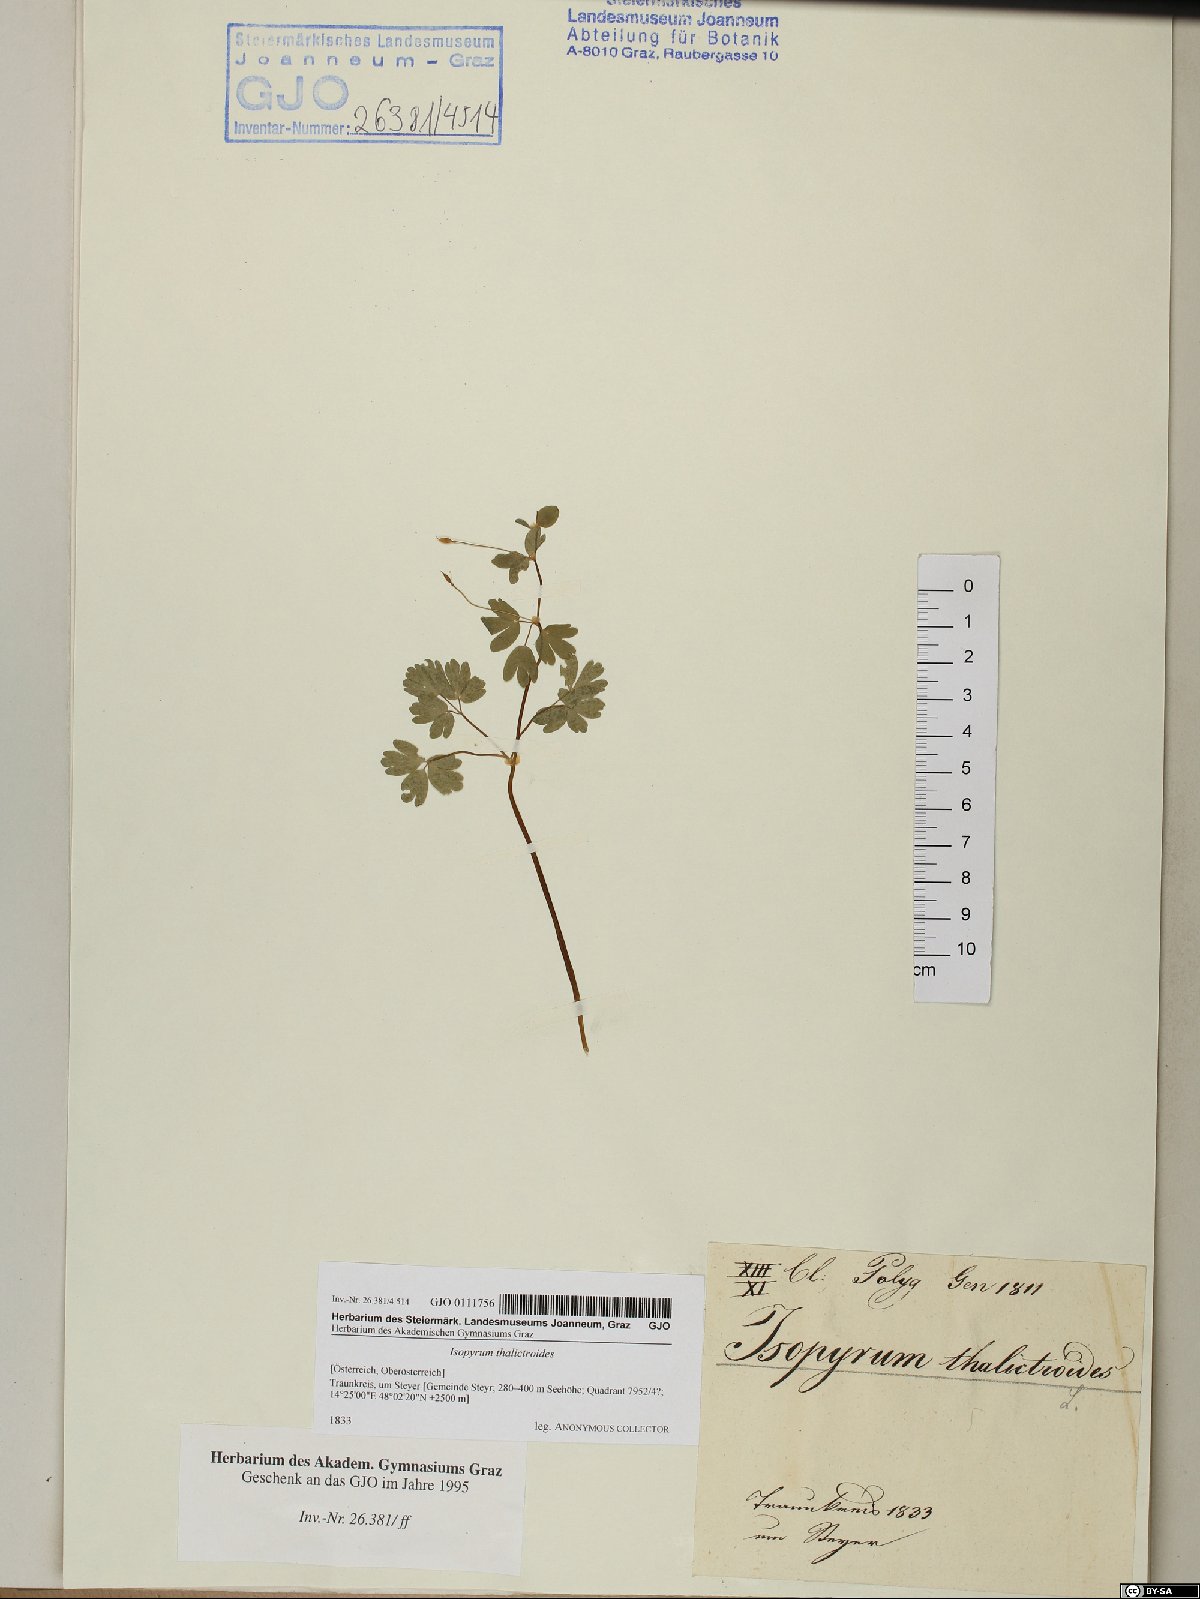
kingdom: Plantae
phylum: Tracheophyta
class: Magnoliopsida
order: Ranunculales
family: Ranunculaceae
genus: Isopyrum
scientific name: Isopyrum thalictroides
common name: Isopyrum
